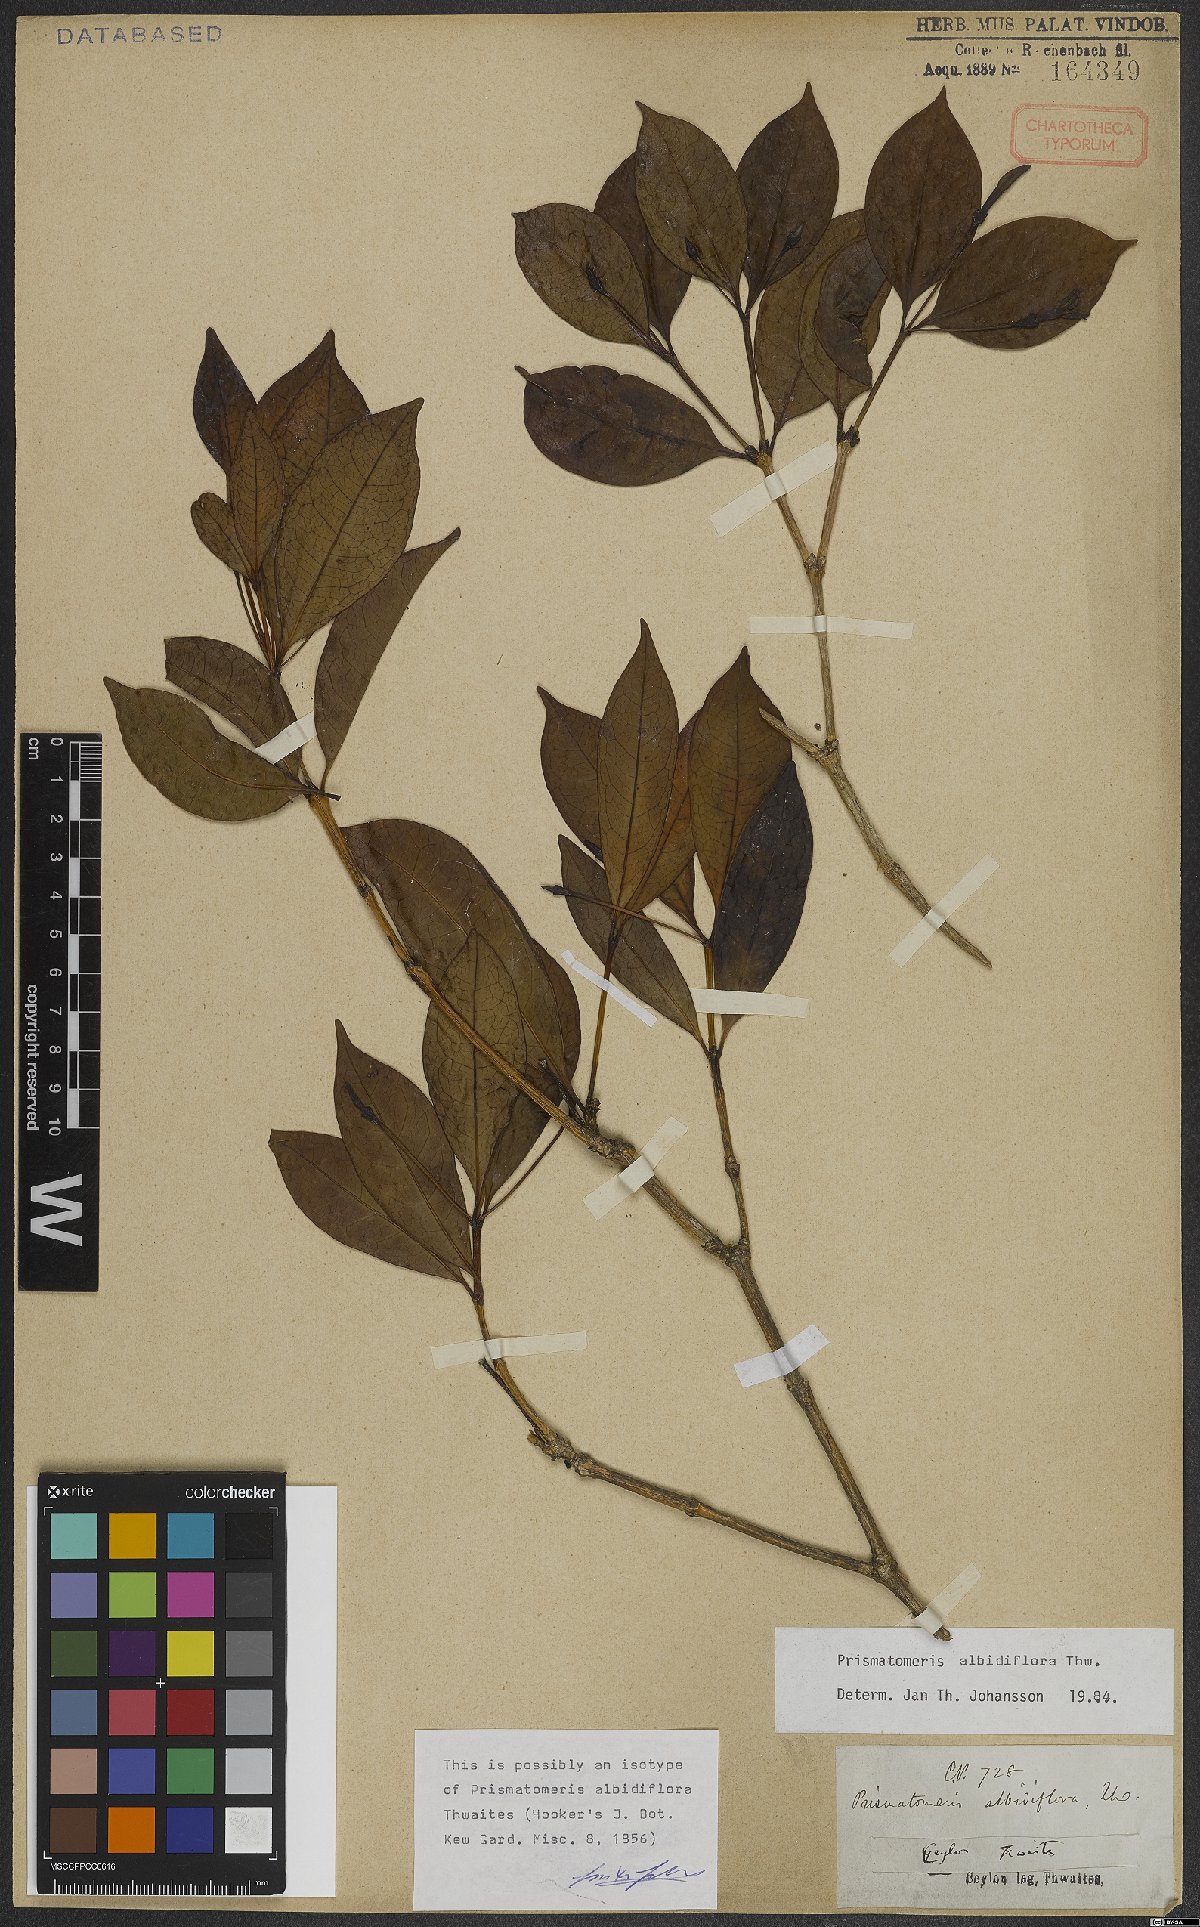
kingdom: Plantae
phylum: Tracheophyta
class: Magnoliopsida
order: Gentianales
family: Rubiaceae
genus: Prismatomeris
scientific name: Prismatomeris albidiflora
